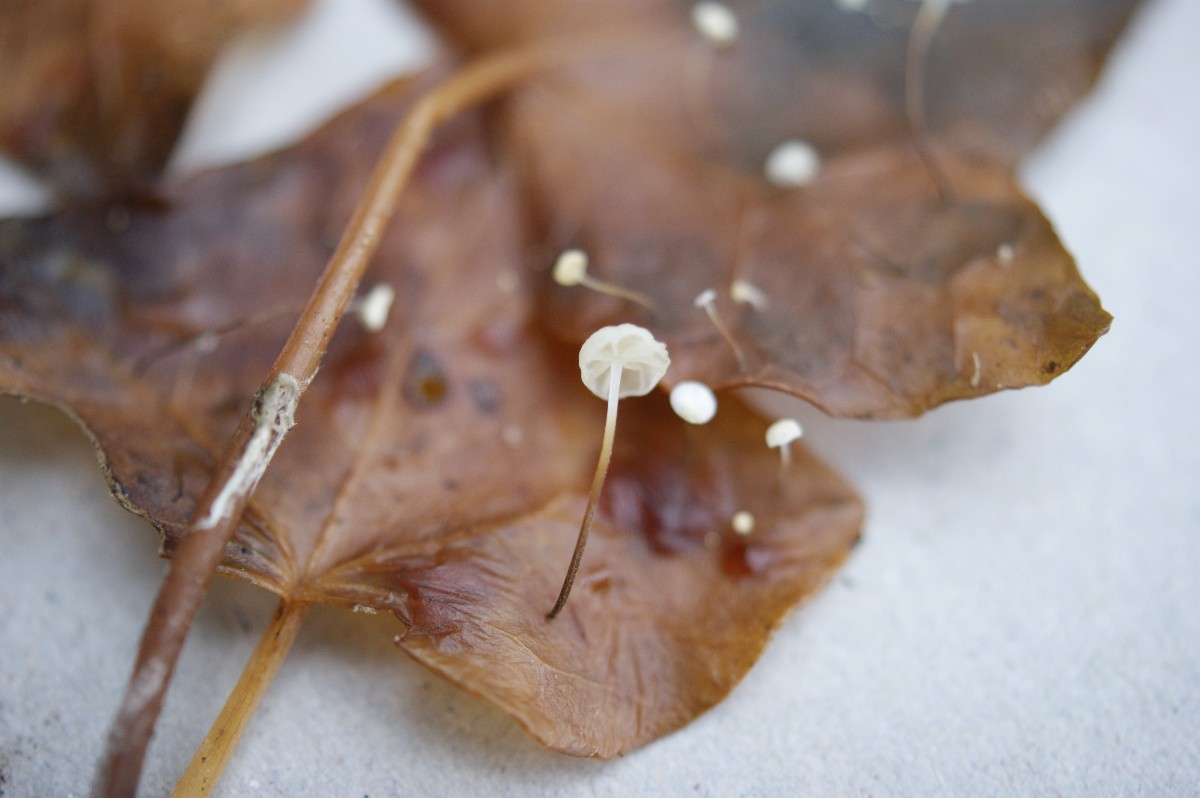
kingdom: Fungi
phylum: Basidiomycota
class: Agaricomycetes
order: Agaricales
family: Marasmiaceae
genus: Marasmius
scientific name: Marasmius epiphylloides
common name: vedbend-bruskhat
